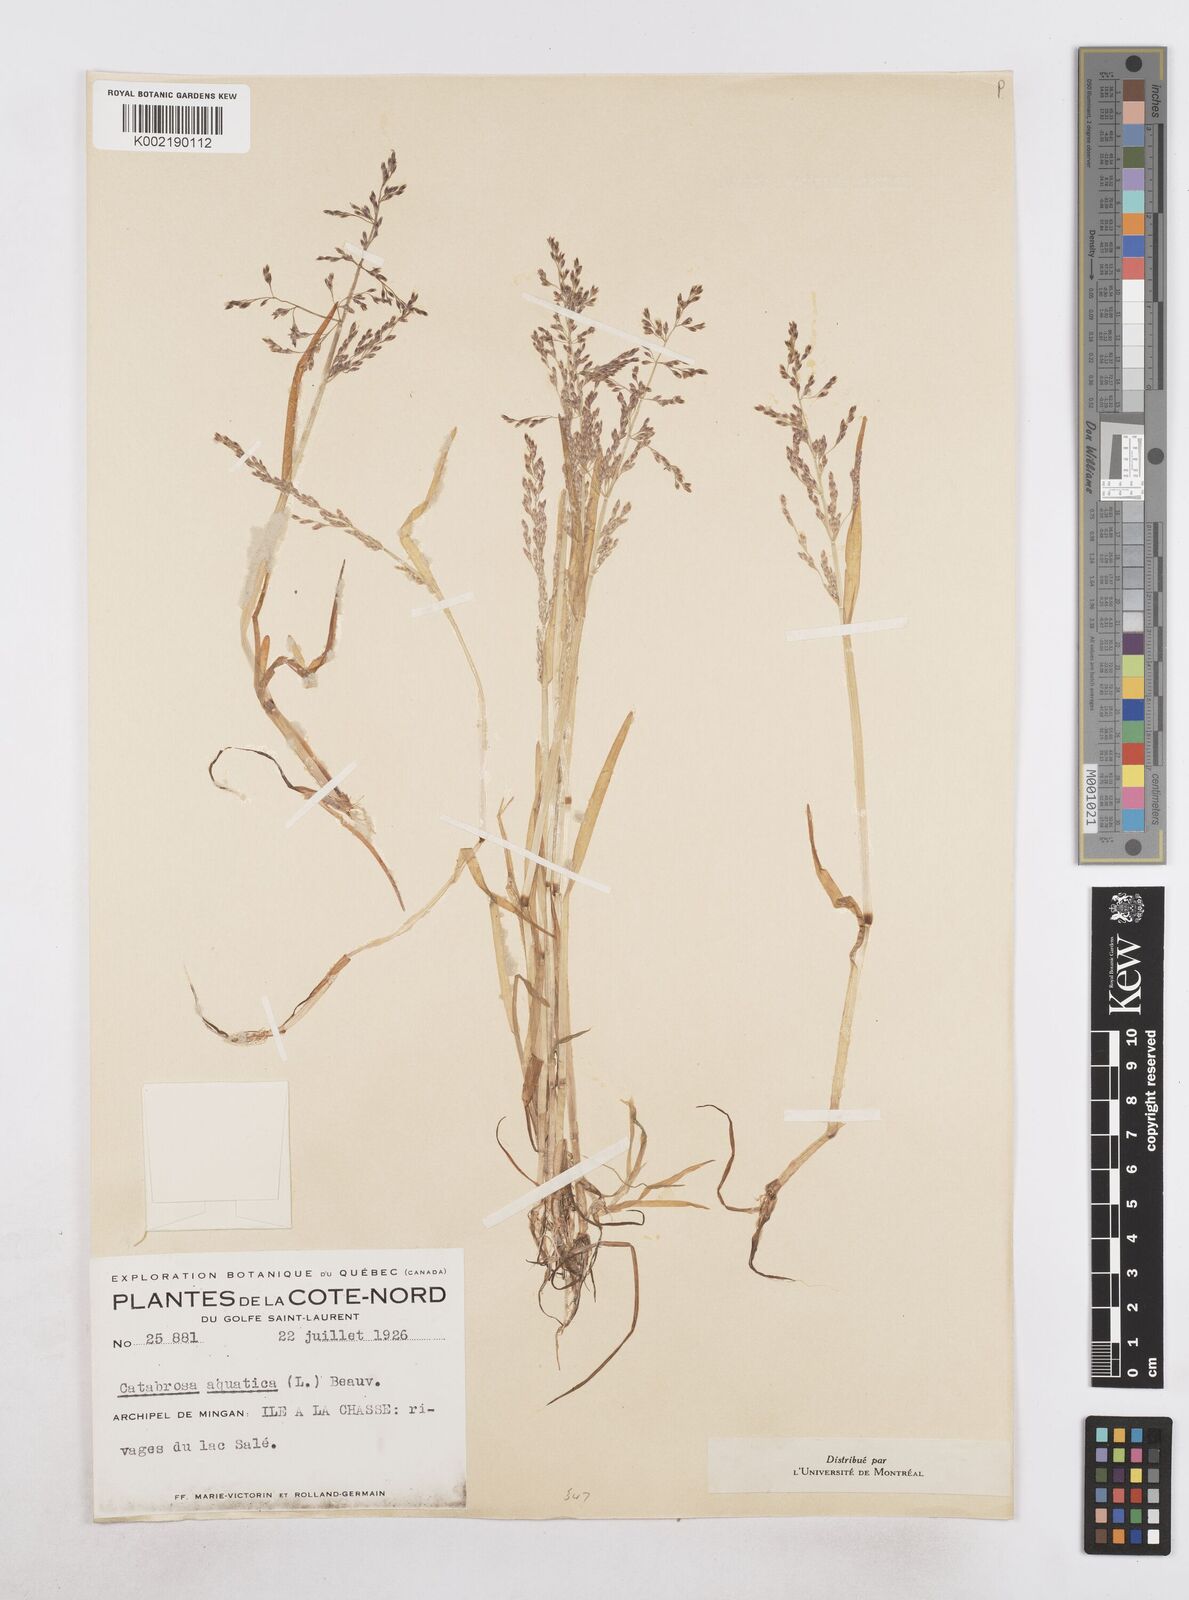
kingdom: Plantae
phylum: Tracheophyta
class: Liliopsida
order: Poales
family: Poaceae
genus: Catabrosa
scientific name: Catabrosa aquatica
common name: Whorl-grass
